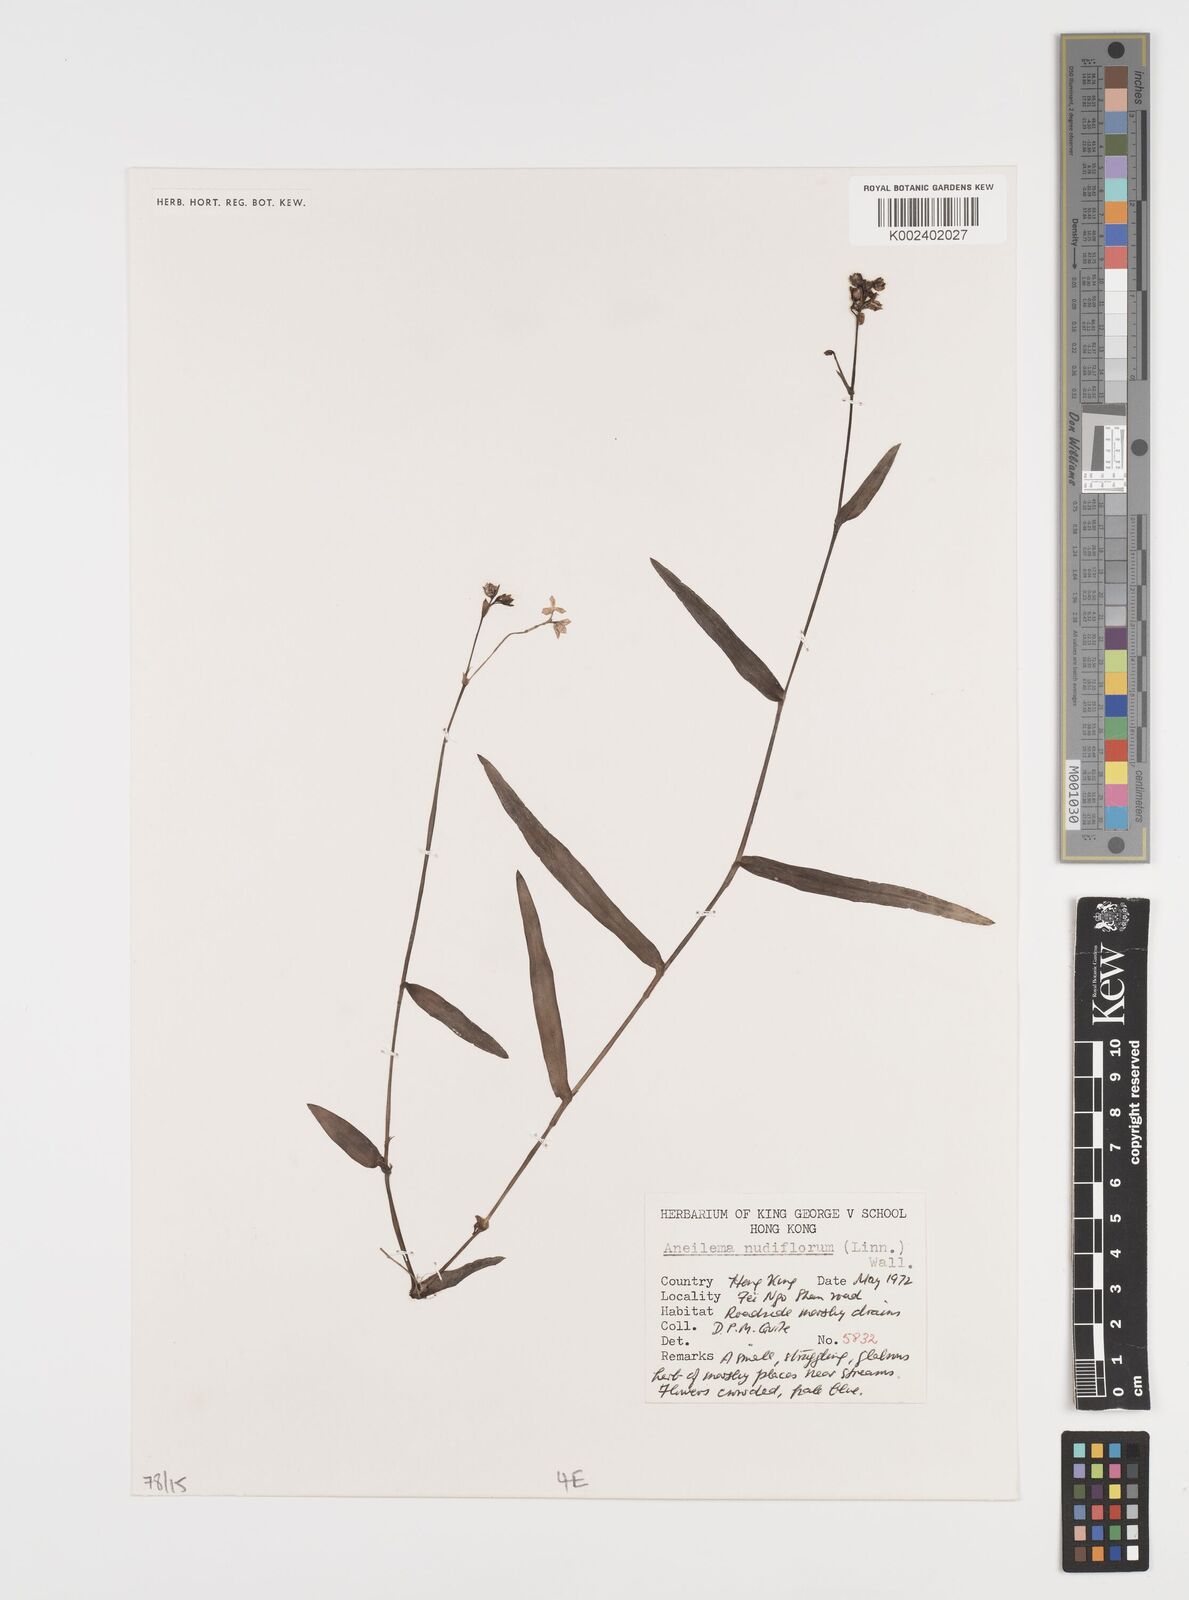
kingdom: Plantae
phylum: Tracheophyta
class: Liliopsida
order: Commelinales
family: Commelinaceae
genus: Murdannia
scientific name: Murdannia nudiflora
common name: Nakedstem dewflower
